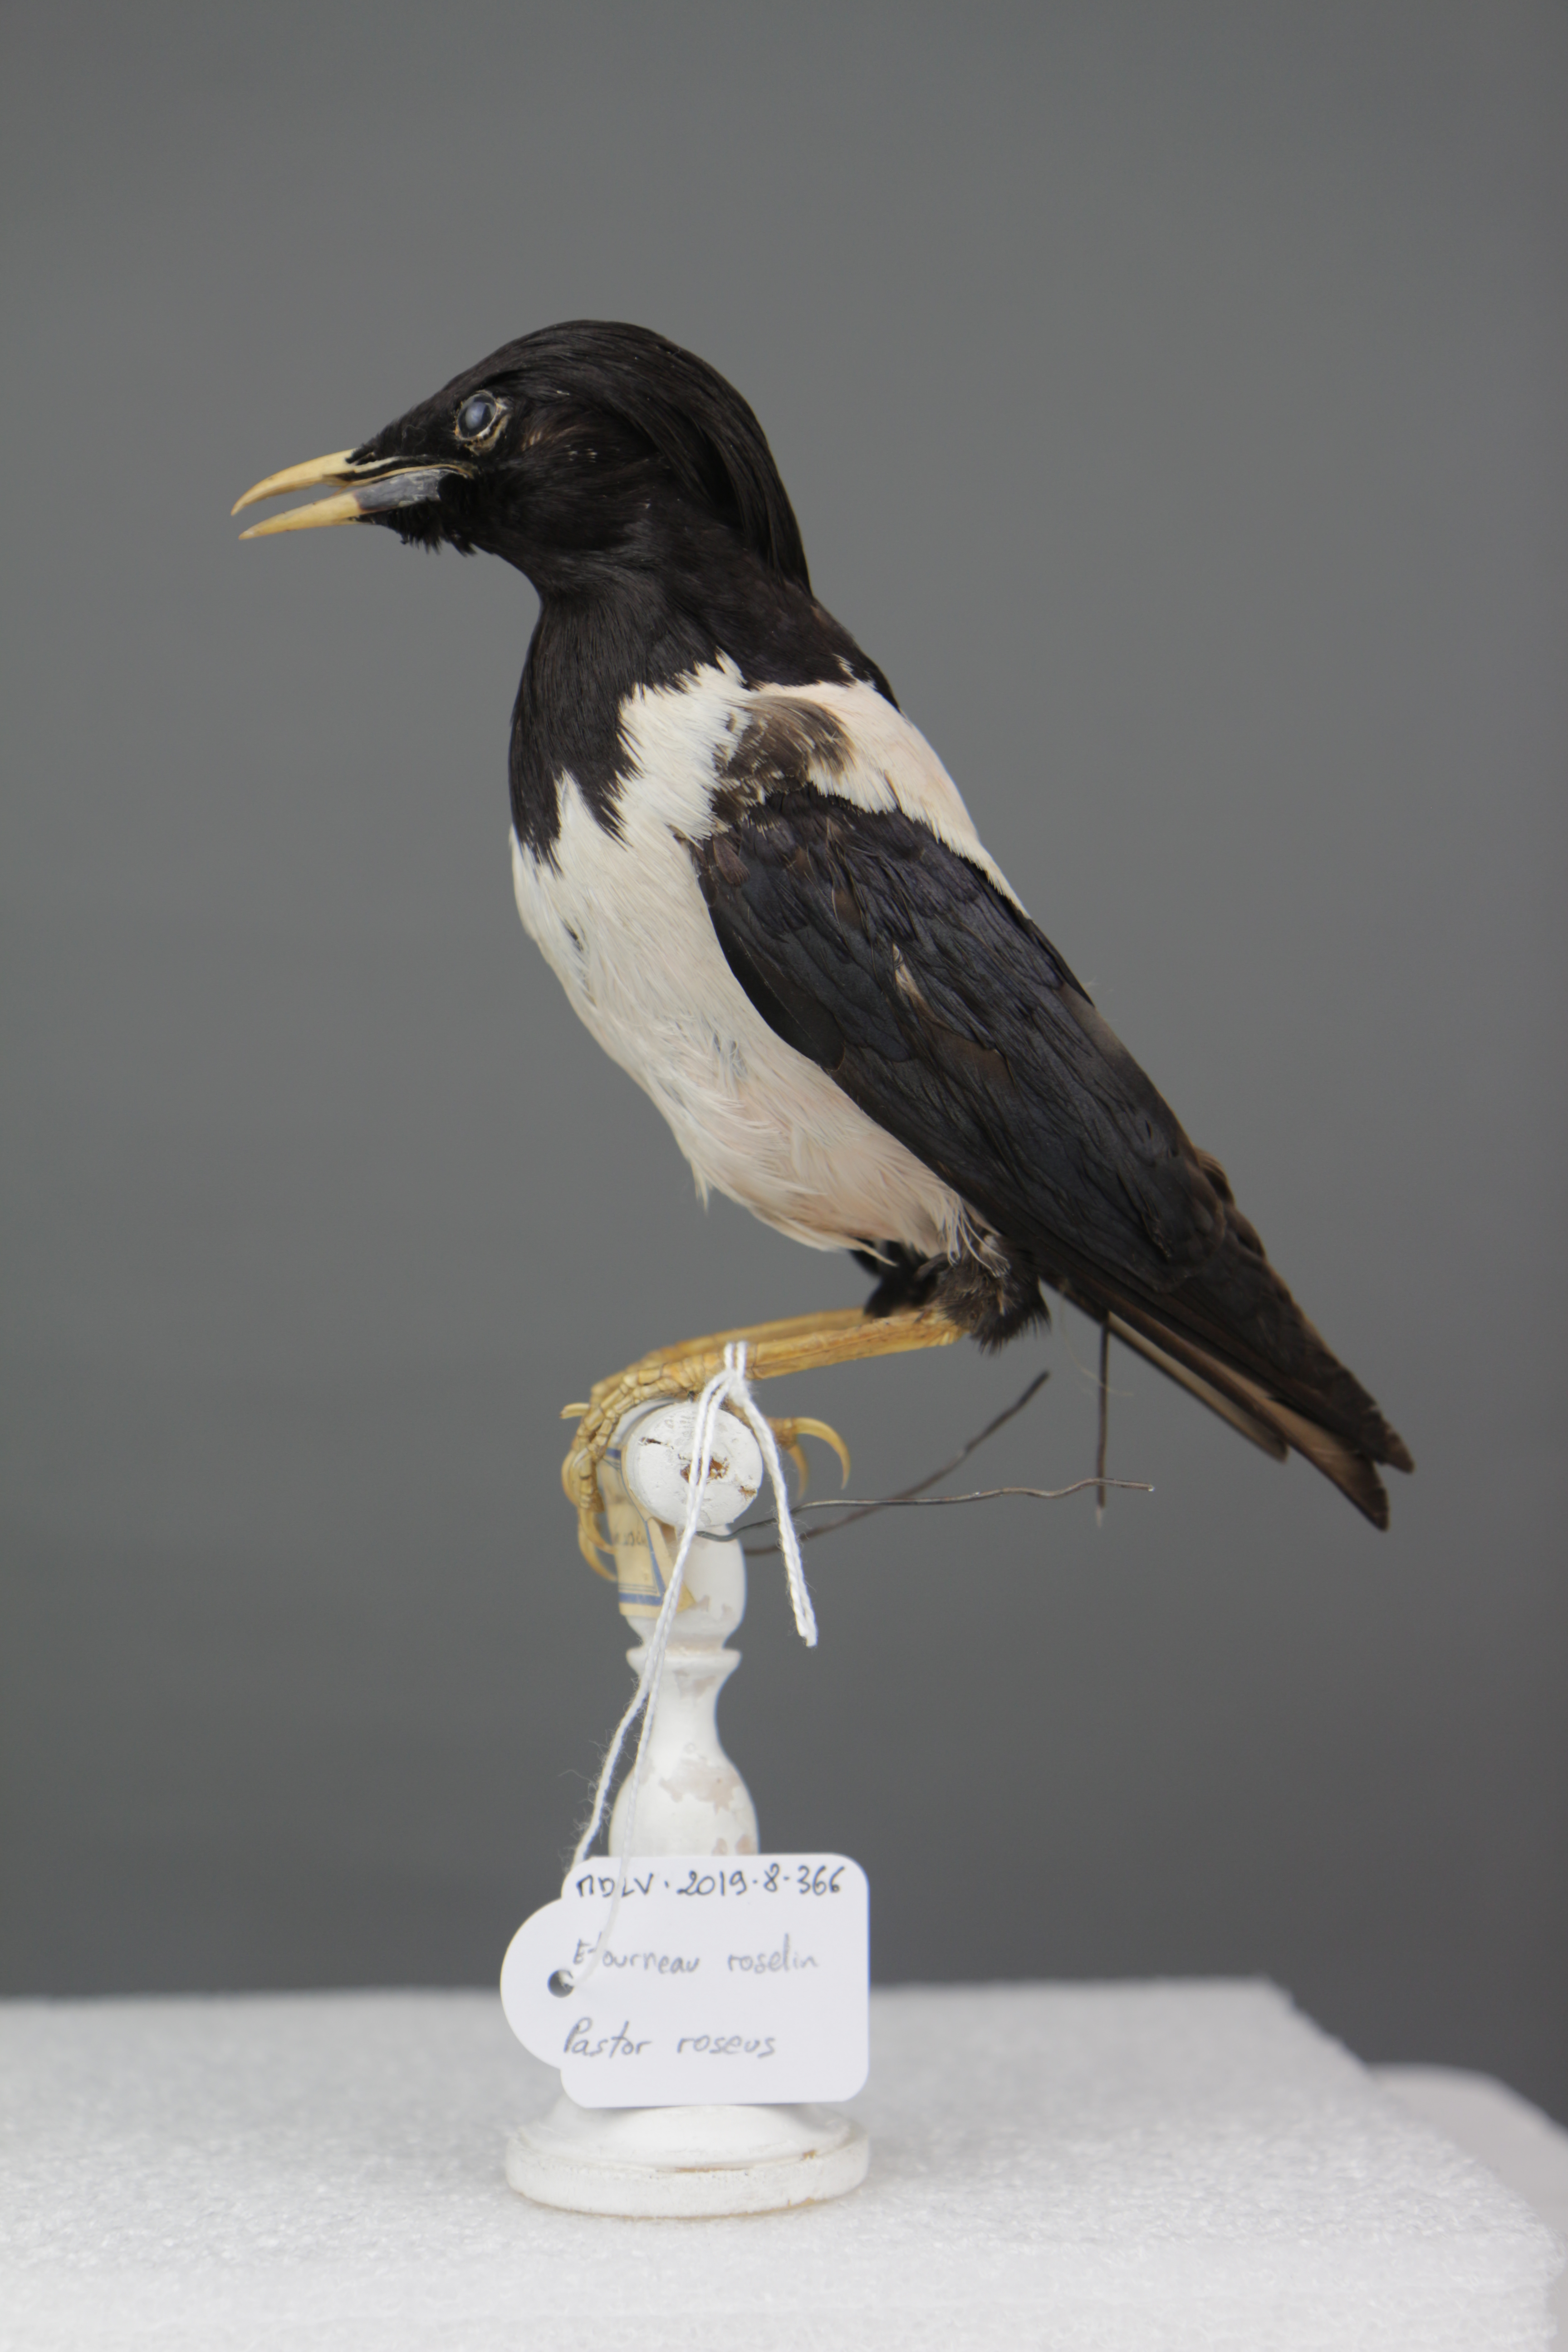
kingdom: Animalia
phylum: Chordata
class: Aves
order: Passeriformes
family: Sturnidae
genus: Pastor
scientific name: Pastor roseus
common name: Rosy starling
